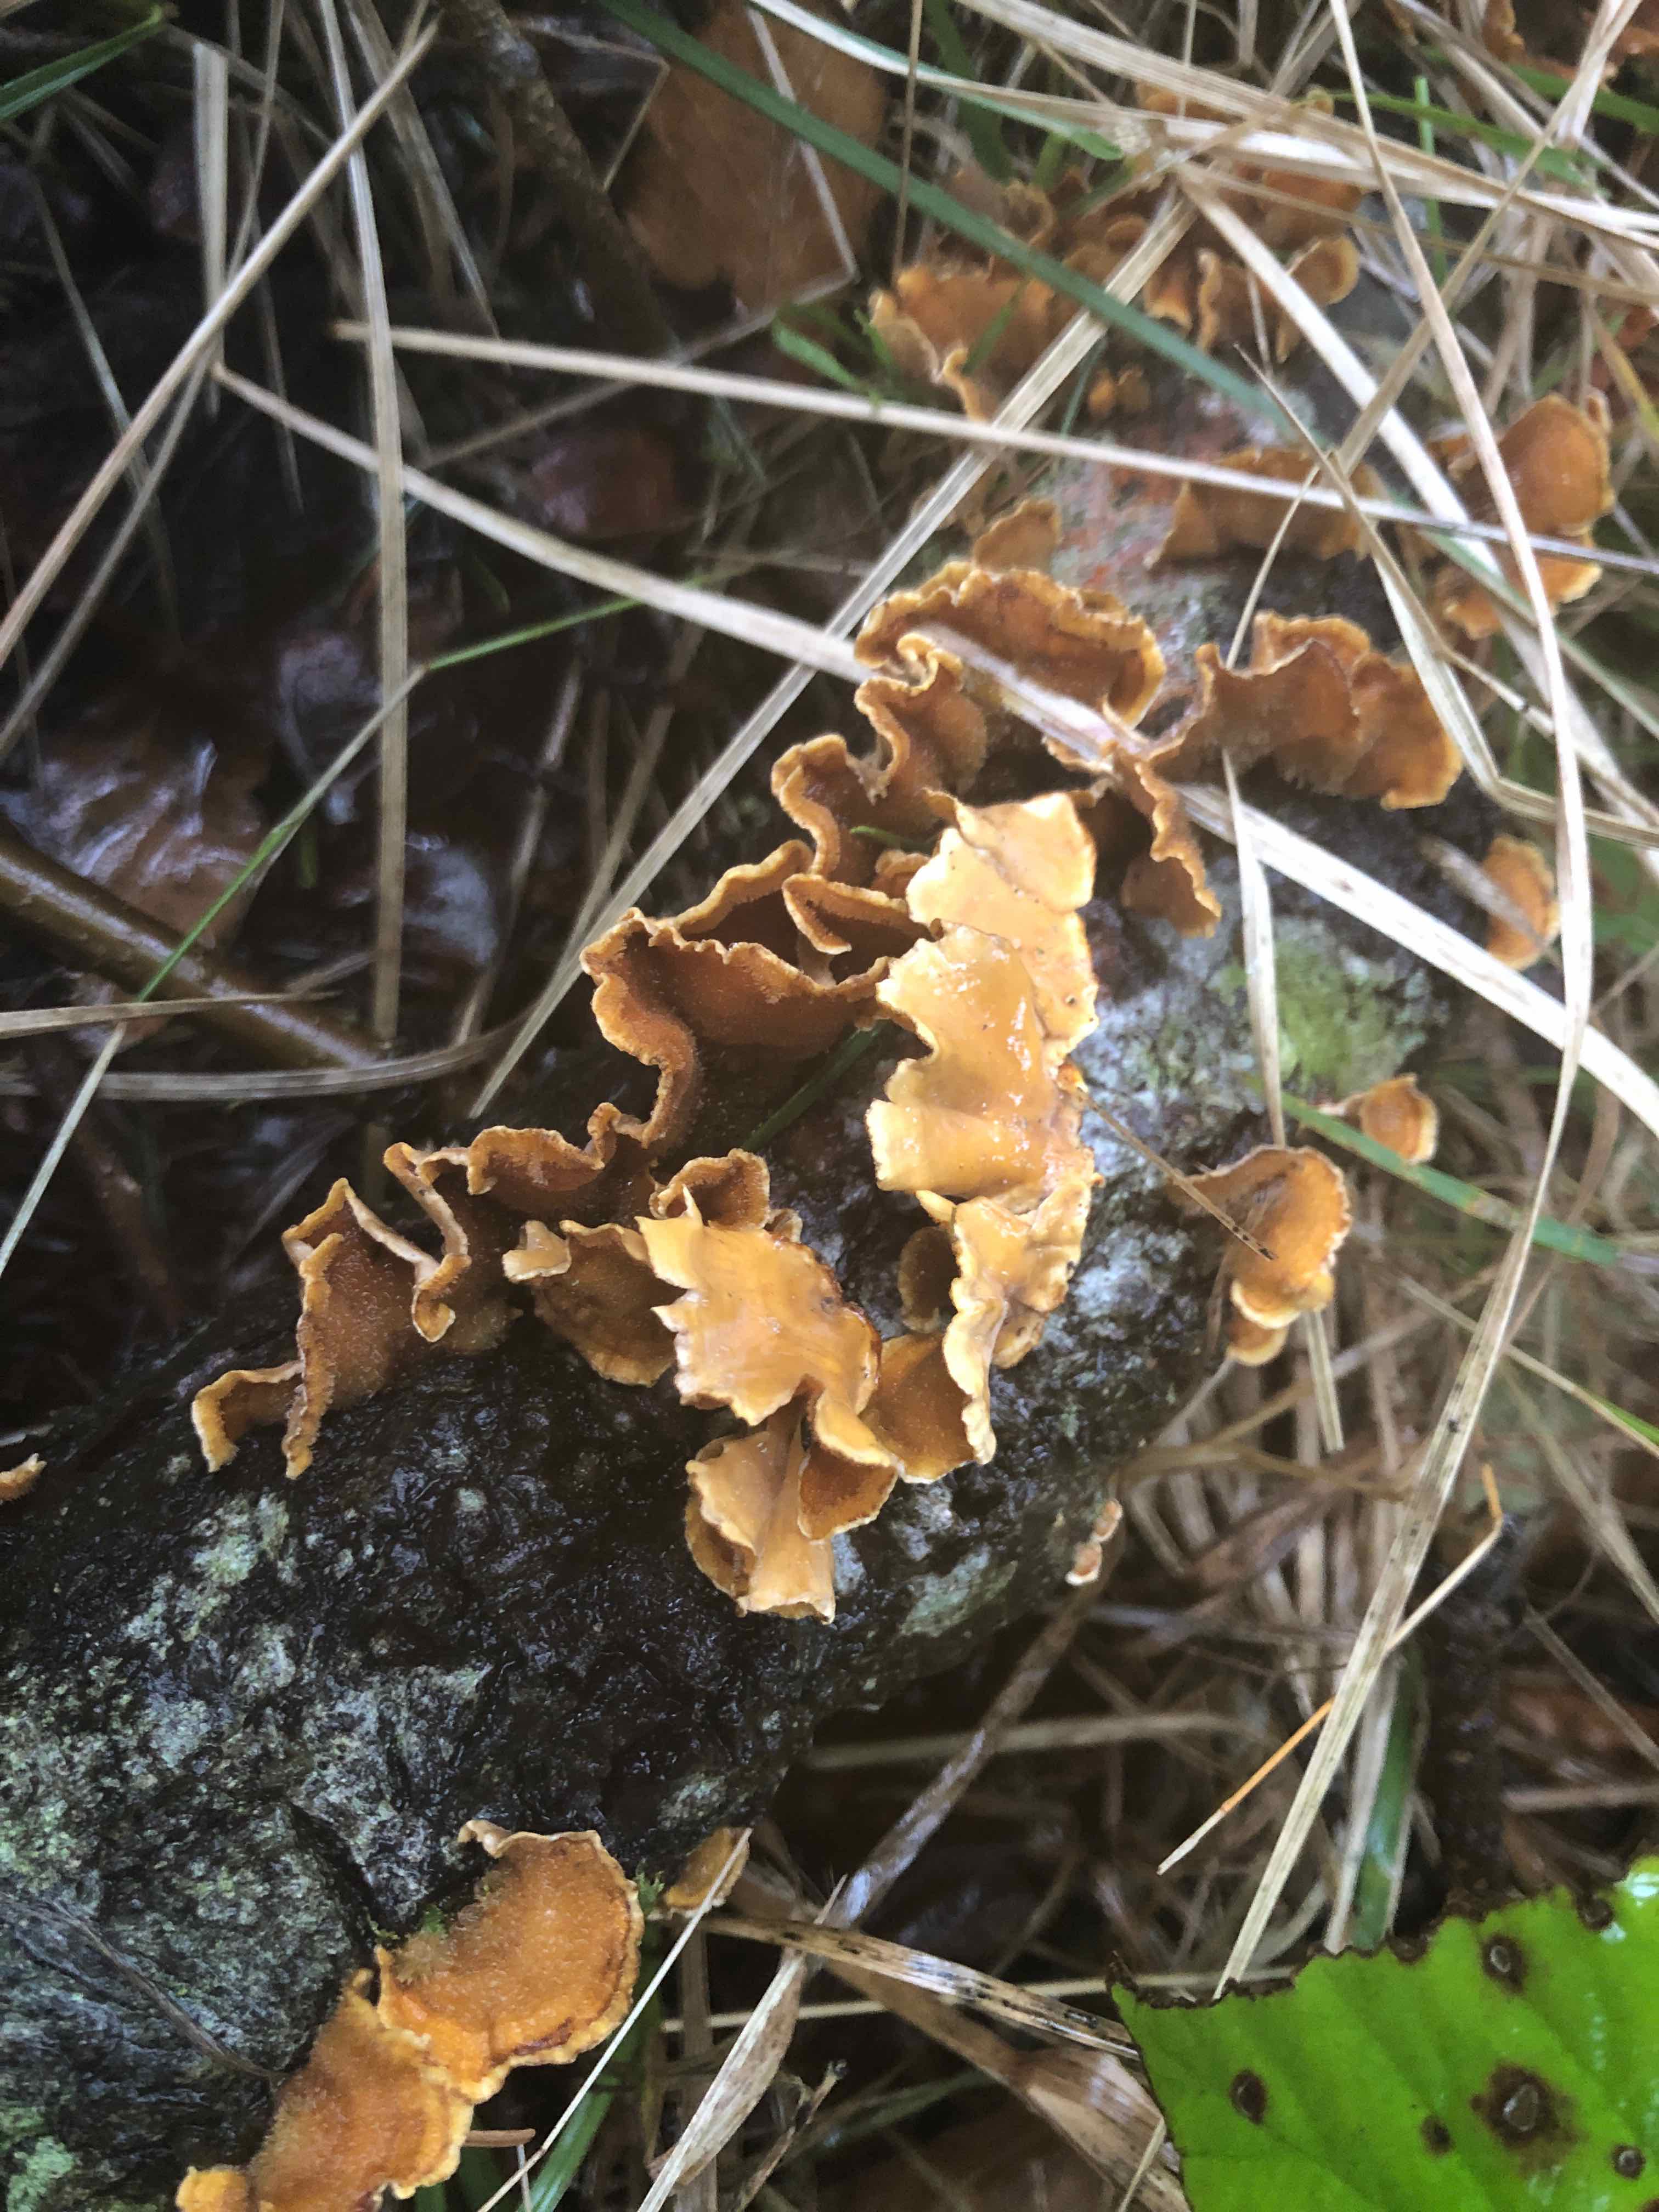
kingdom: Fungi
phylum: Basidiomycota
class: Agaricomycetes
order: Russulales
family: Stereaceae
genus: Stereum
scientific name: Stereum hirsutum
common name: håret lædersvamp
